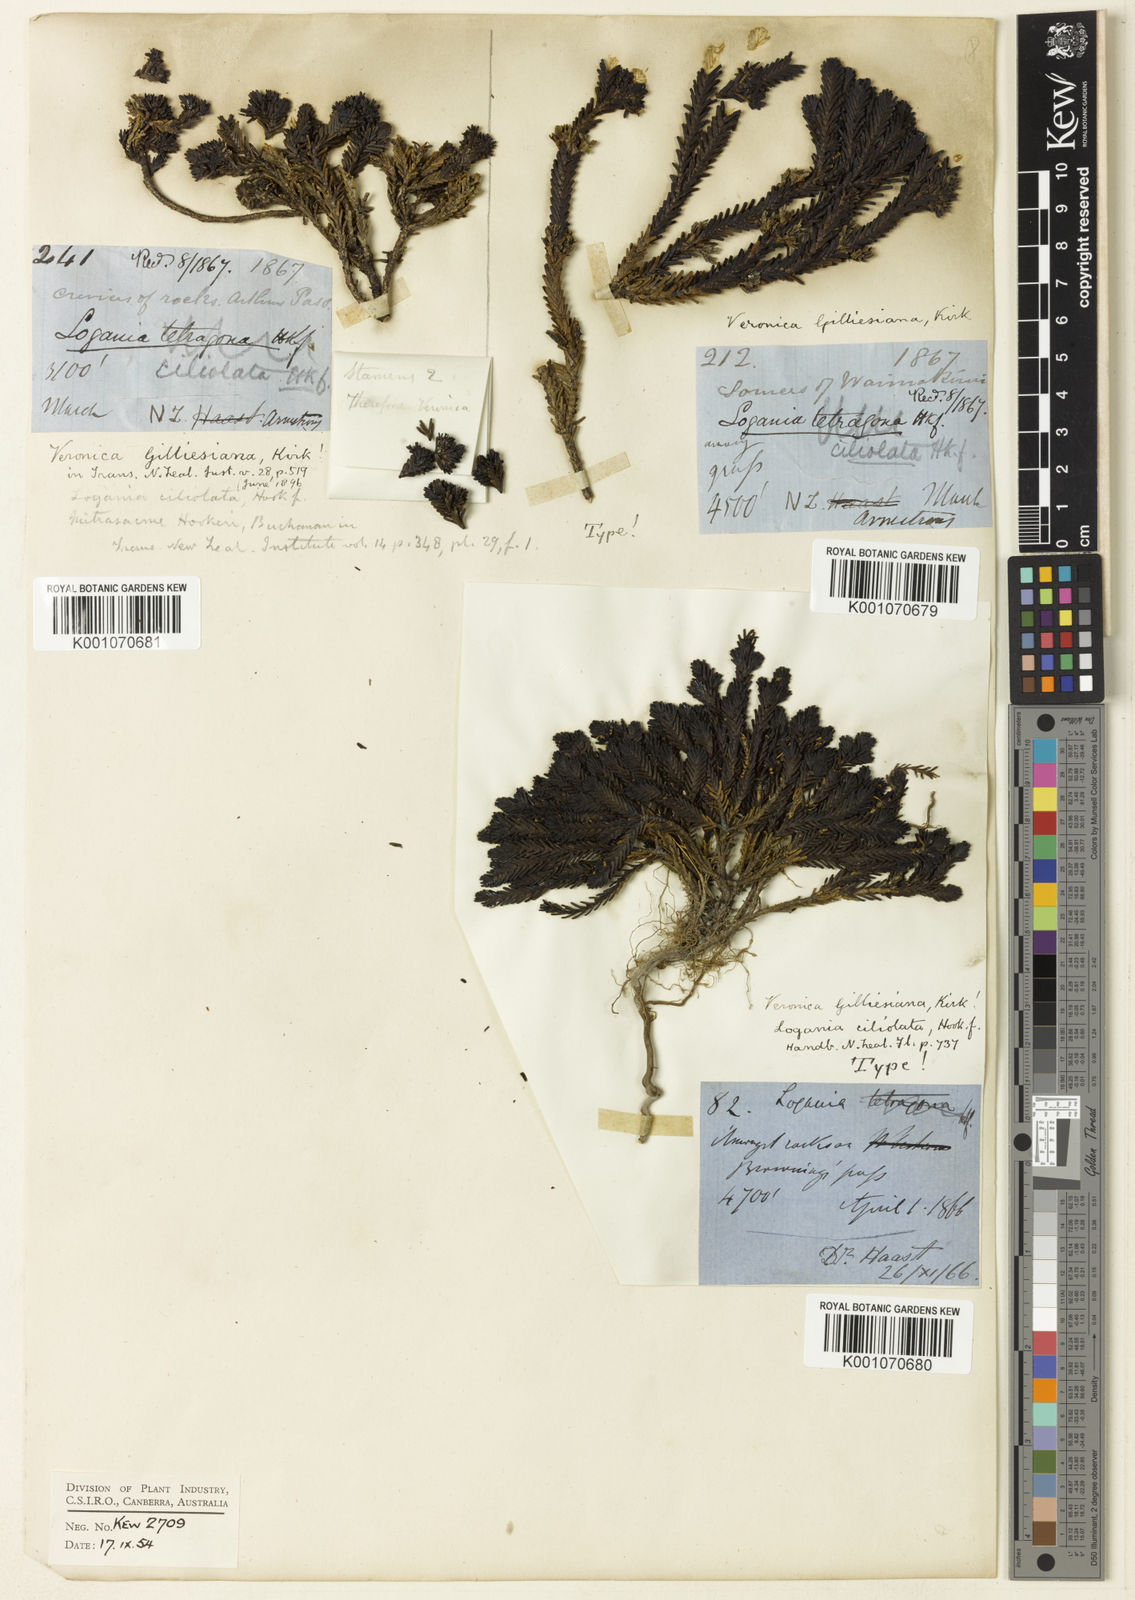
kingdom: Plantae
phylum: Tracheophyta
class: Magnoliopsida
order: Lamiales
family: Plantaginaceae
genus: Veronica
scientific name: Veronica ciliolata
